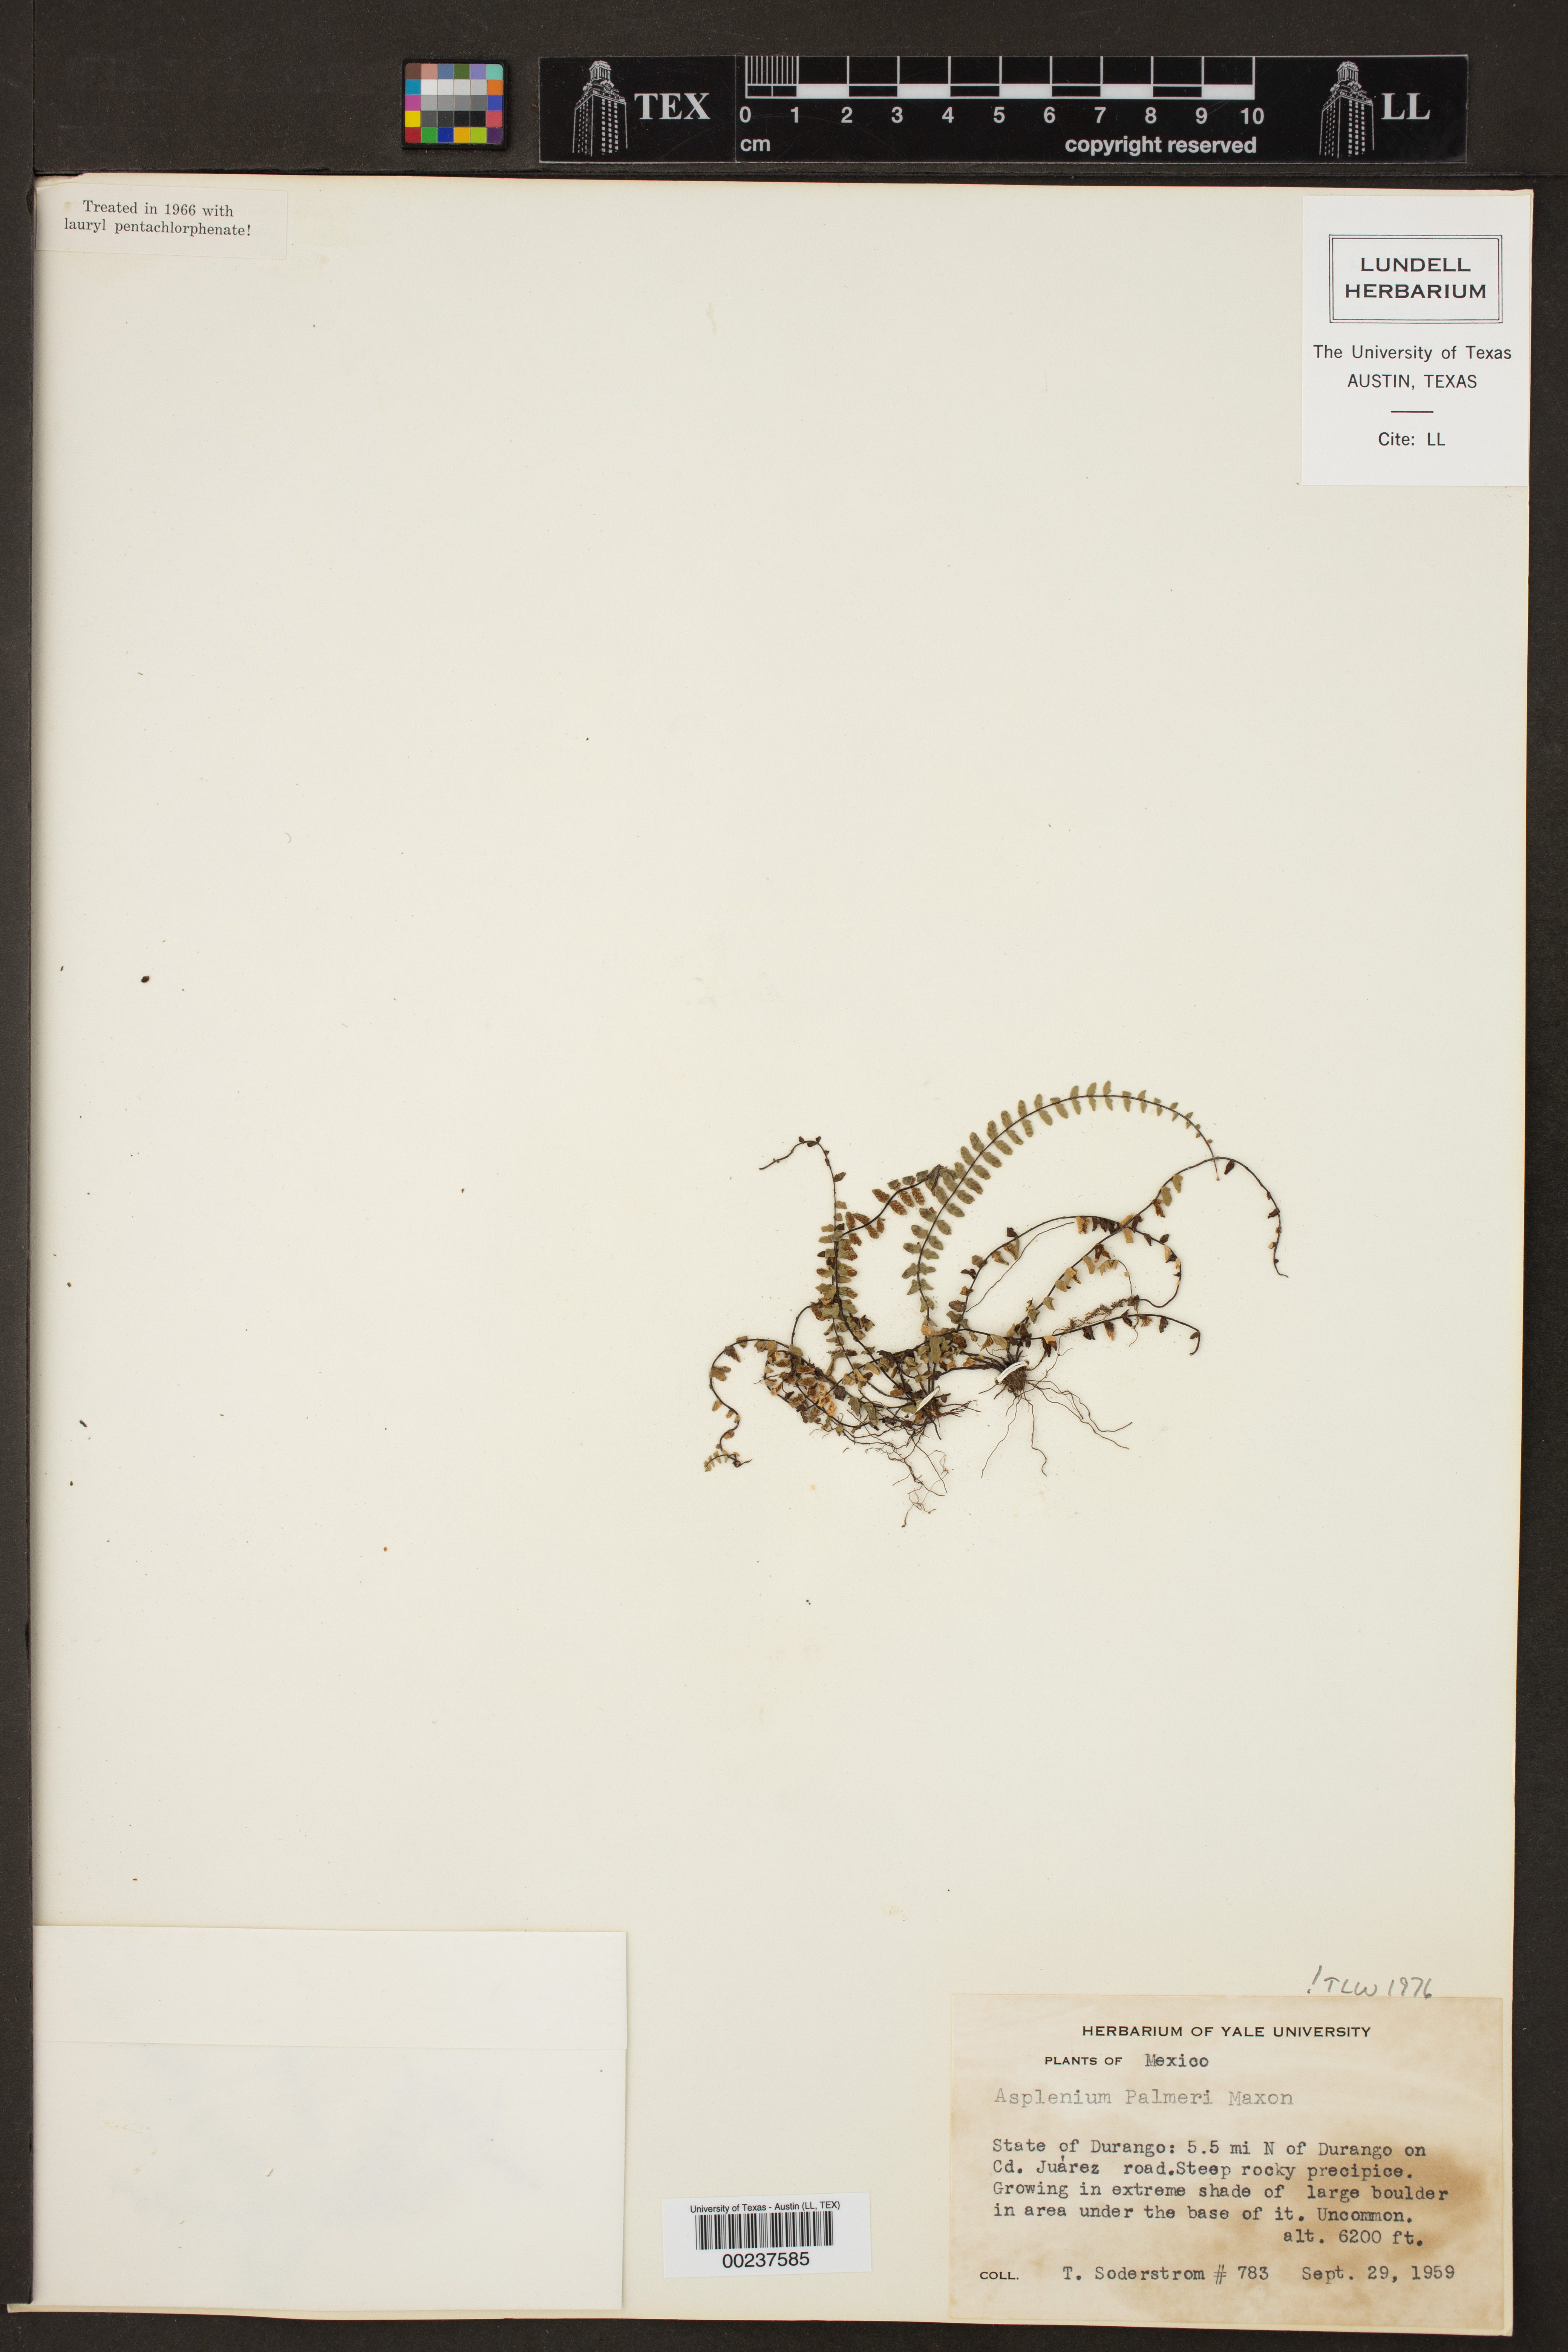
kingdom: Plantae
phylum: Tracheophyta
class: Polypodiopsida
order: Polypodiales
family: Aspleniaceae
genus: Asplenium
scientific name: Asplenium palmeri
